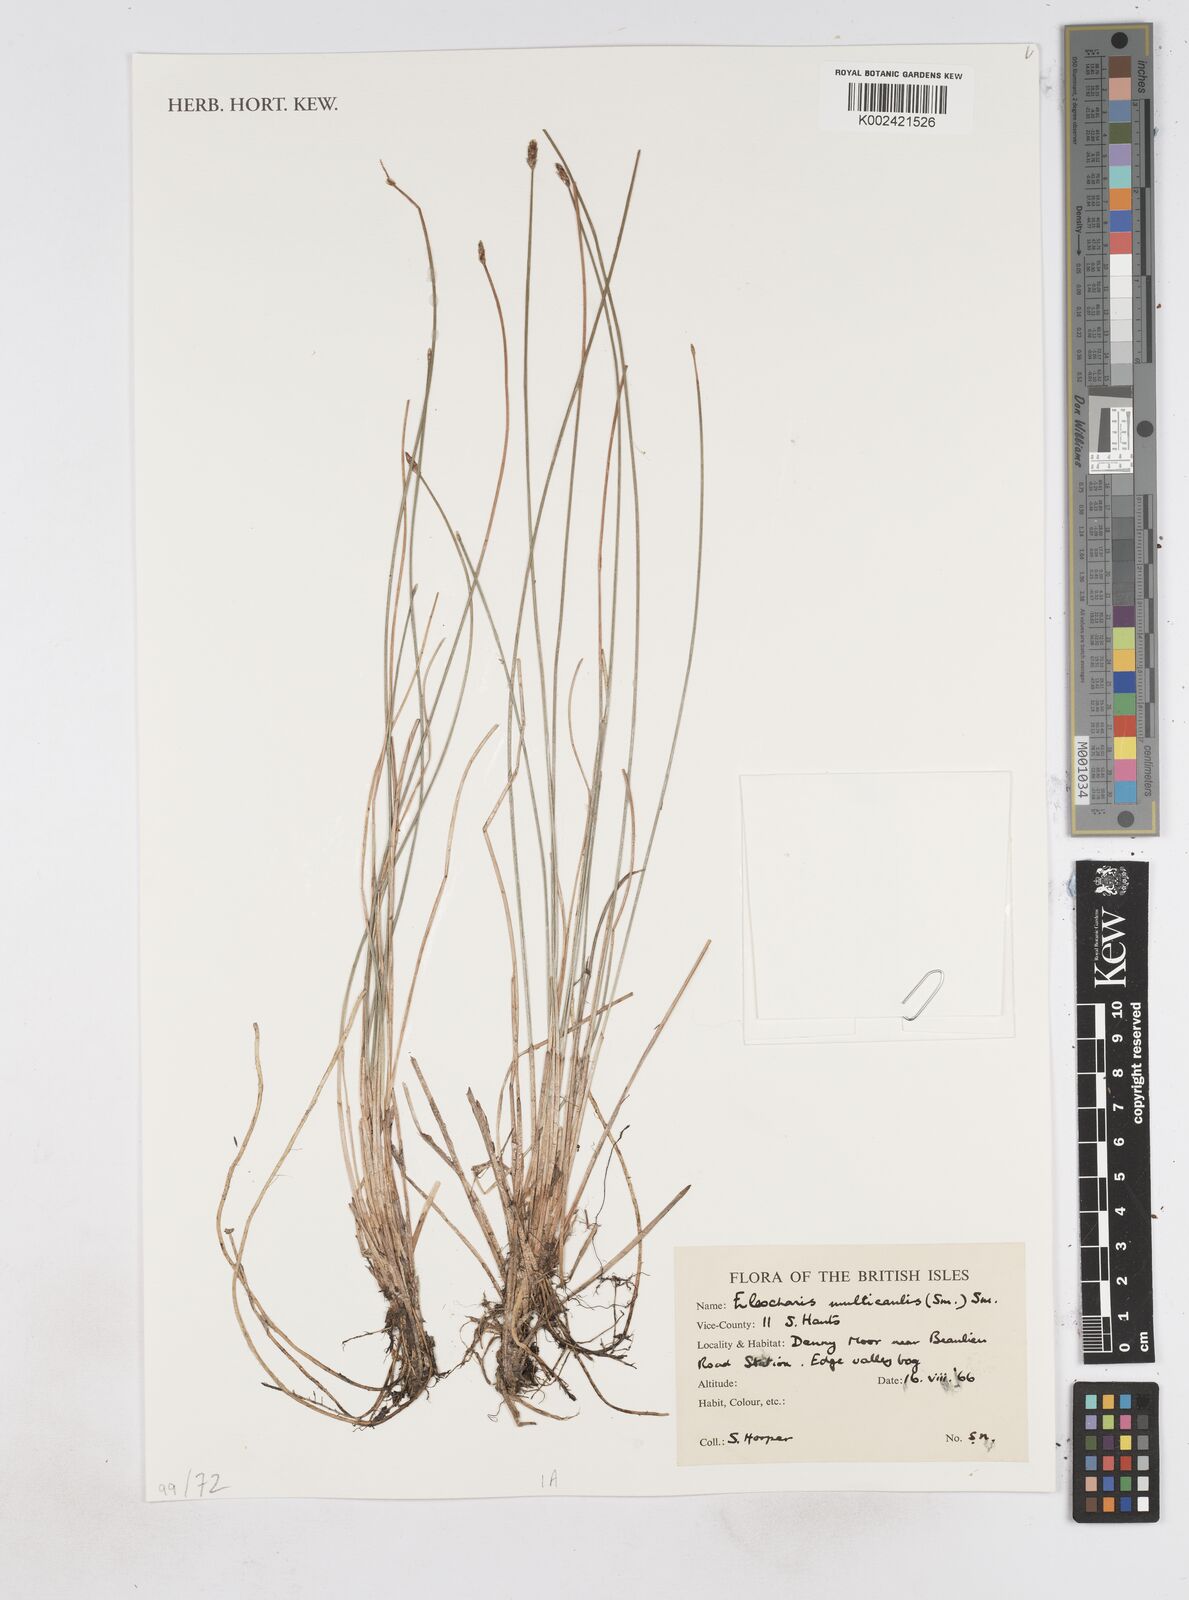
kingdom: Plantae
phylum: Tracheophyta
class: Liliopsida
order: Poales
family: Cyperaceae
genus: Eleocharis
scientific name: Eleocharis multicaulis
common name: Many-stalked spike-rush
